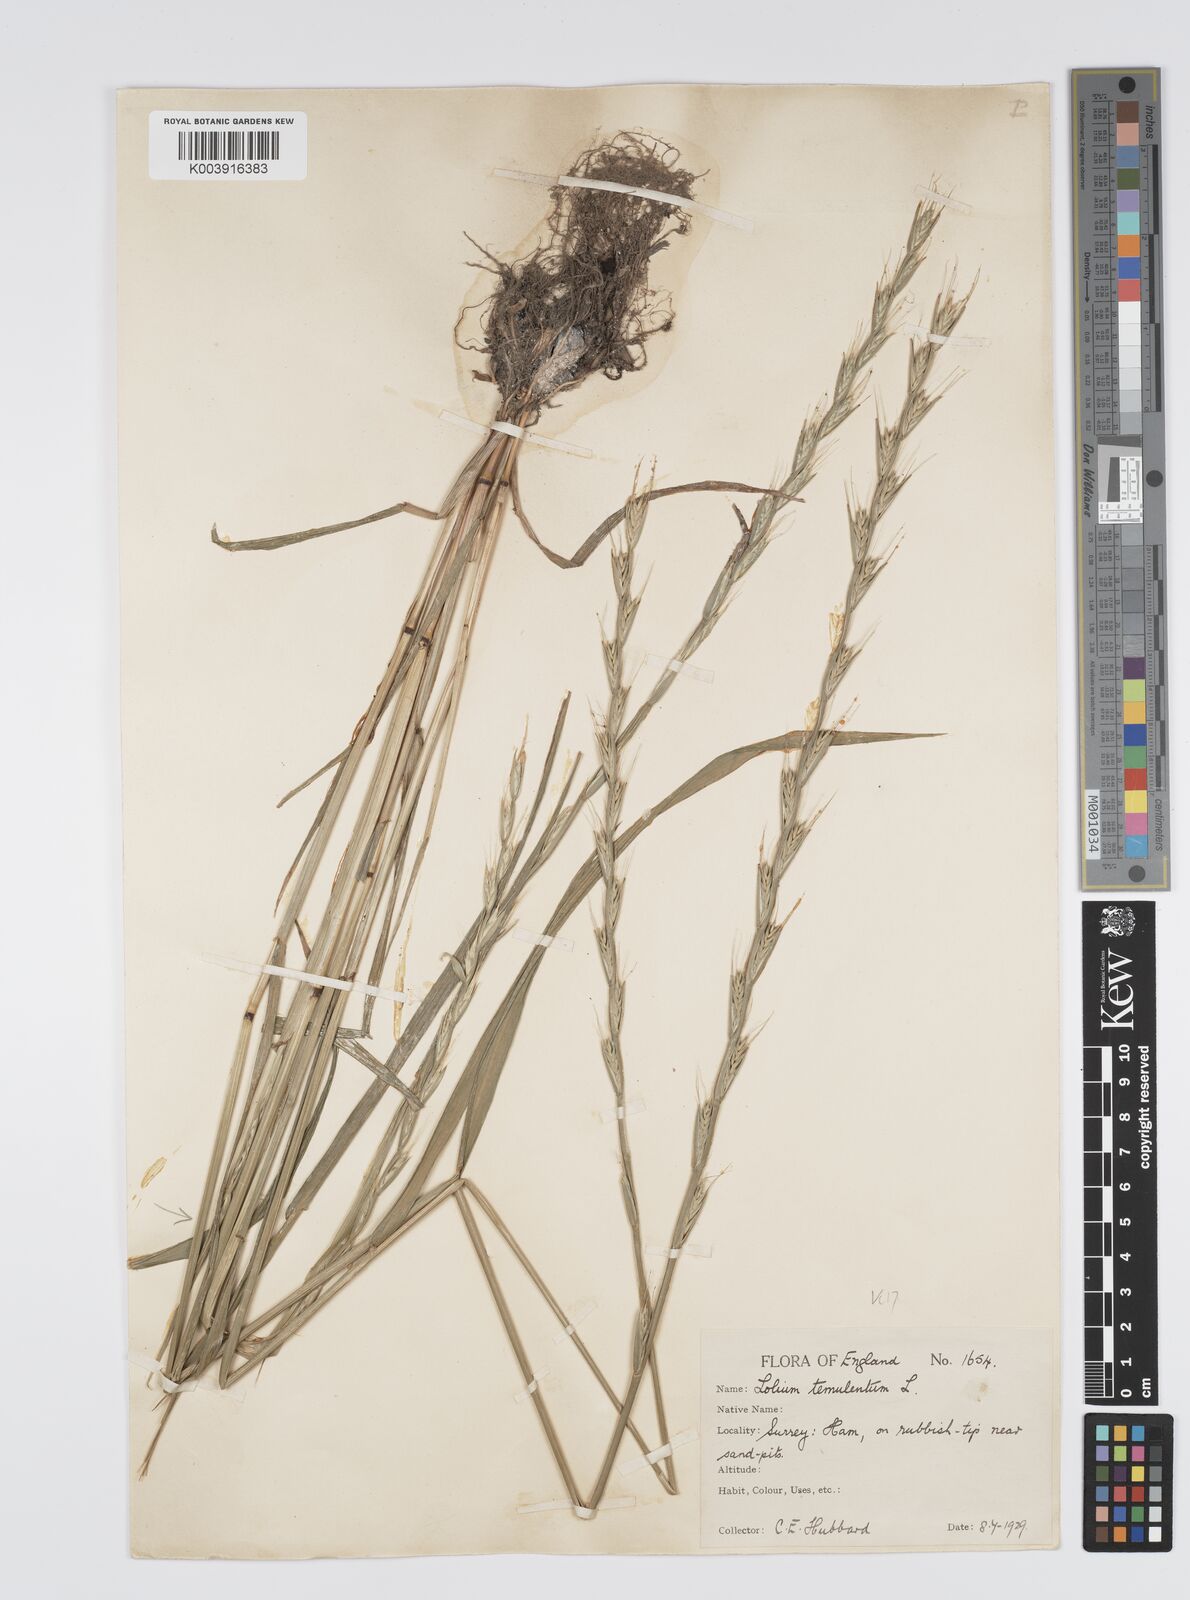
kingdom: Plantae
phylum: Tracheophyta
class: Liliopsida
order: Poales
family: Poaceae
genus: Lolium
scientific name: Lolium temulentum
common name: Darnel
